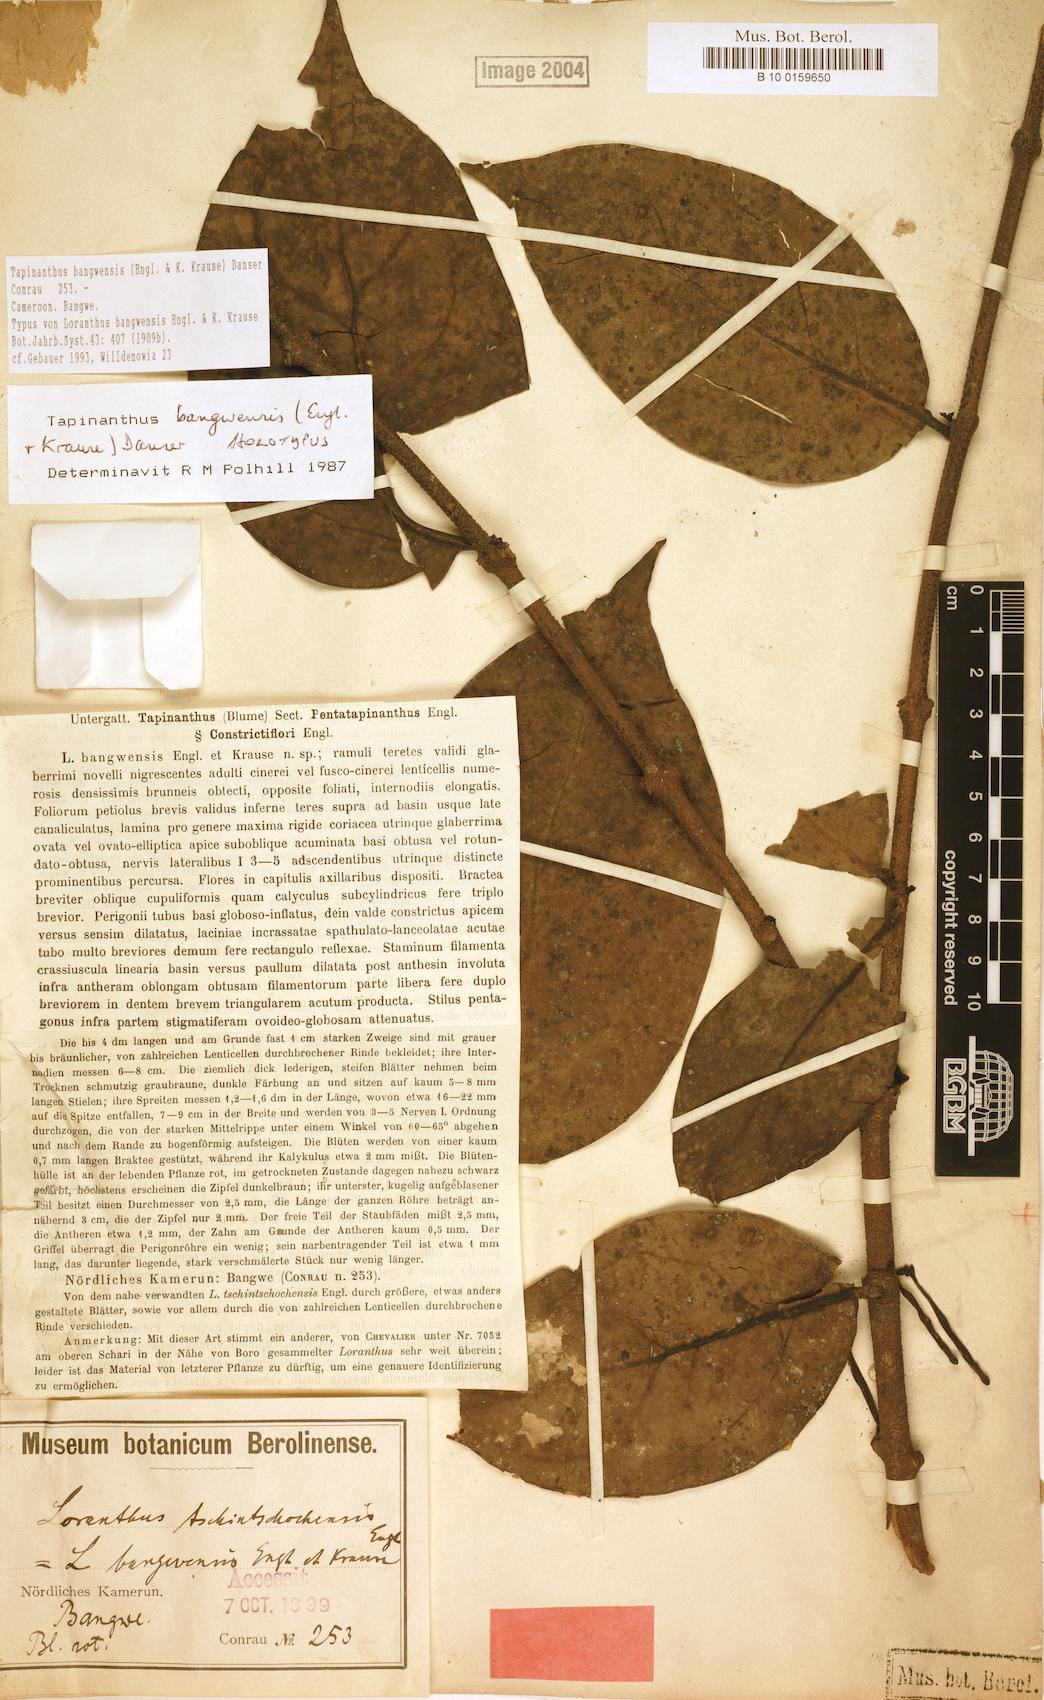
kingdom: Plantae
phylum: Tracheophyta
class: Magnoliopsida
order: Santalales
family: Loranthaceae
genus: Tapinanthus
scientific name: Tapinanthus bangwensis
